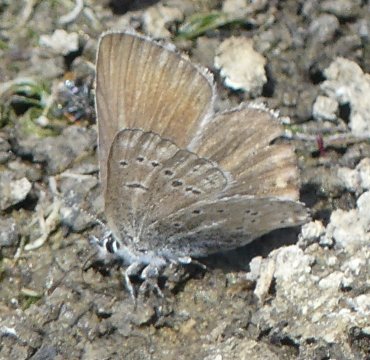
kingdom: Animalia
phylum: Arthropoda
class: Insecta
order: Lepidoptera
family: Lycaenidae
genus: Icaricia
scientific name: Icaricia saepiolus
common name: Greenish Blue
